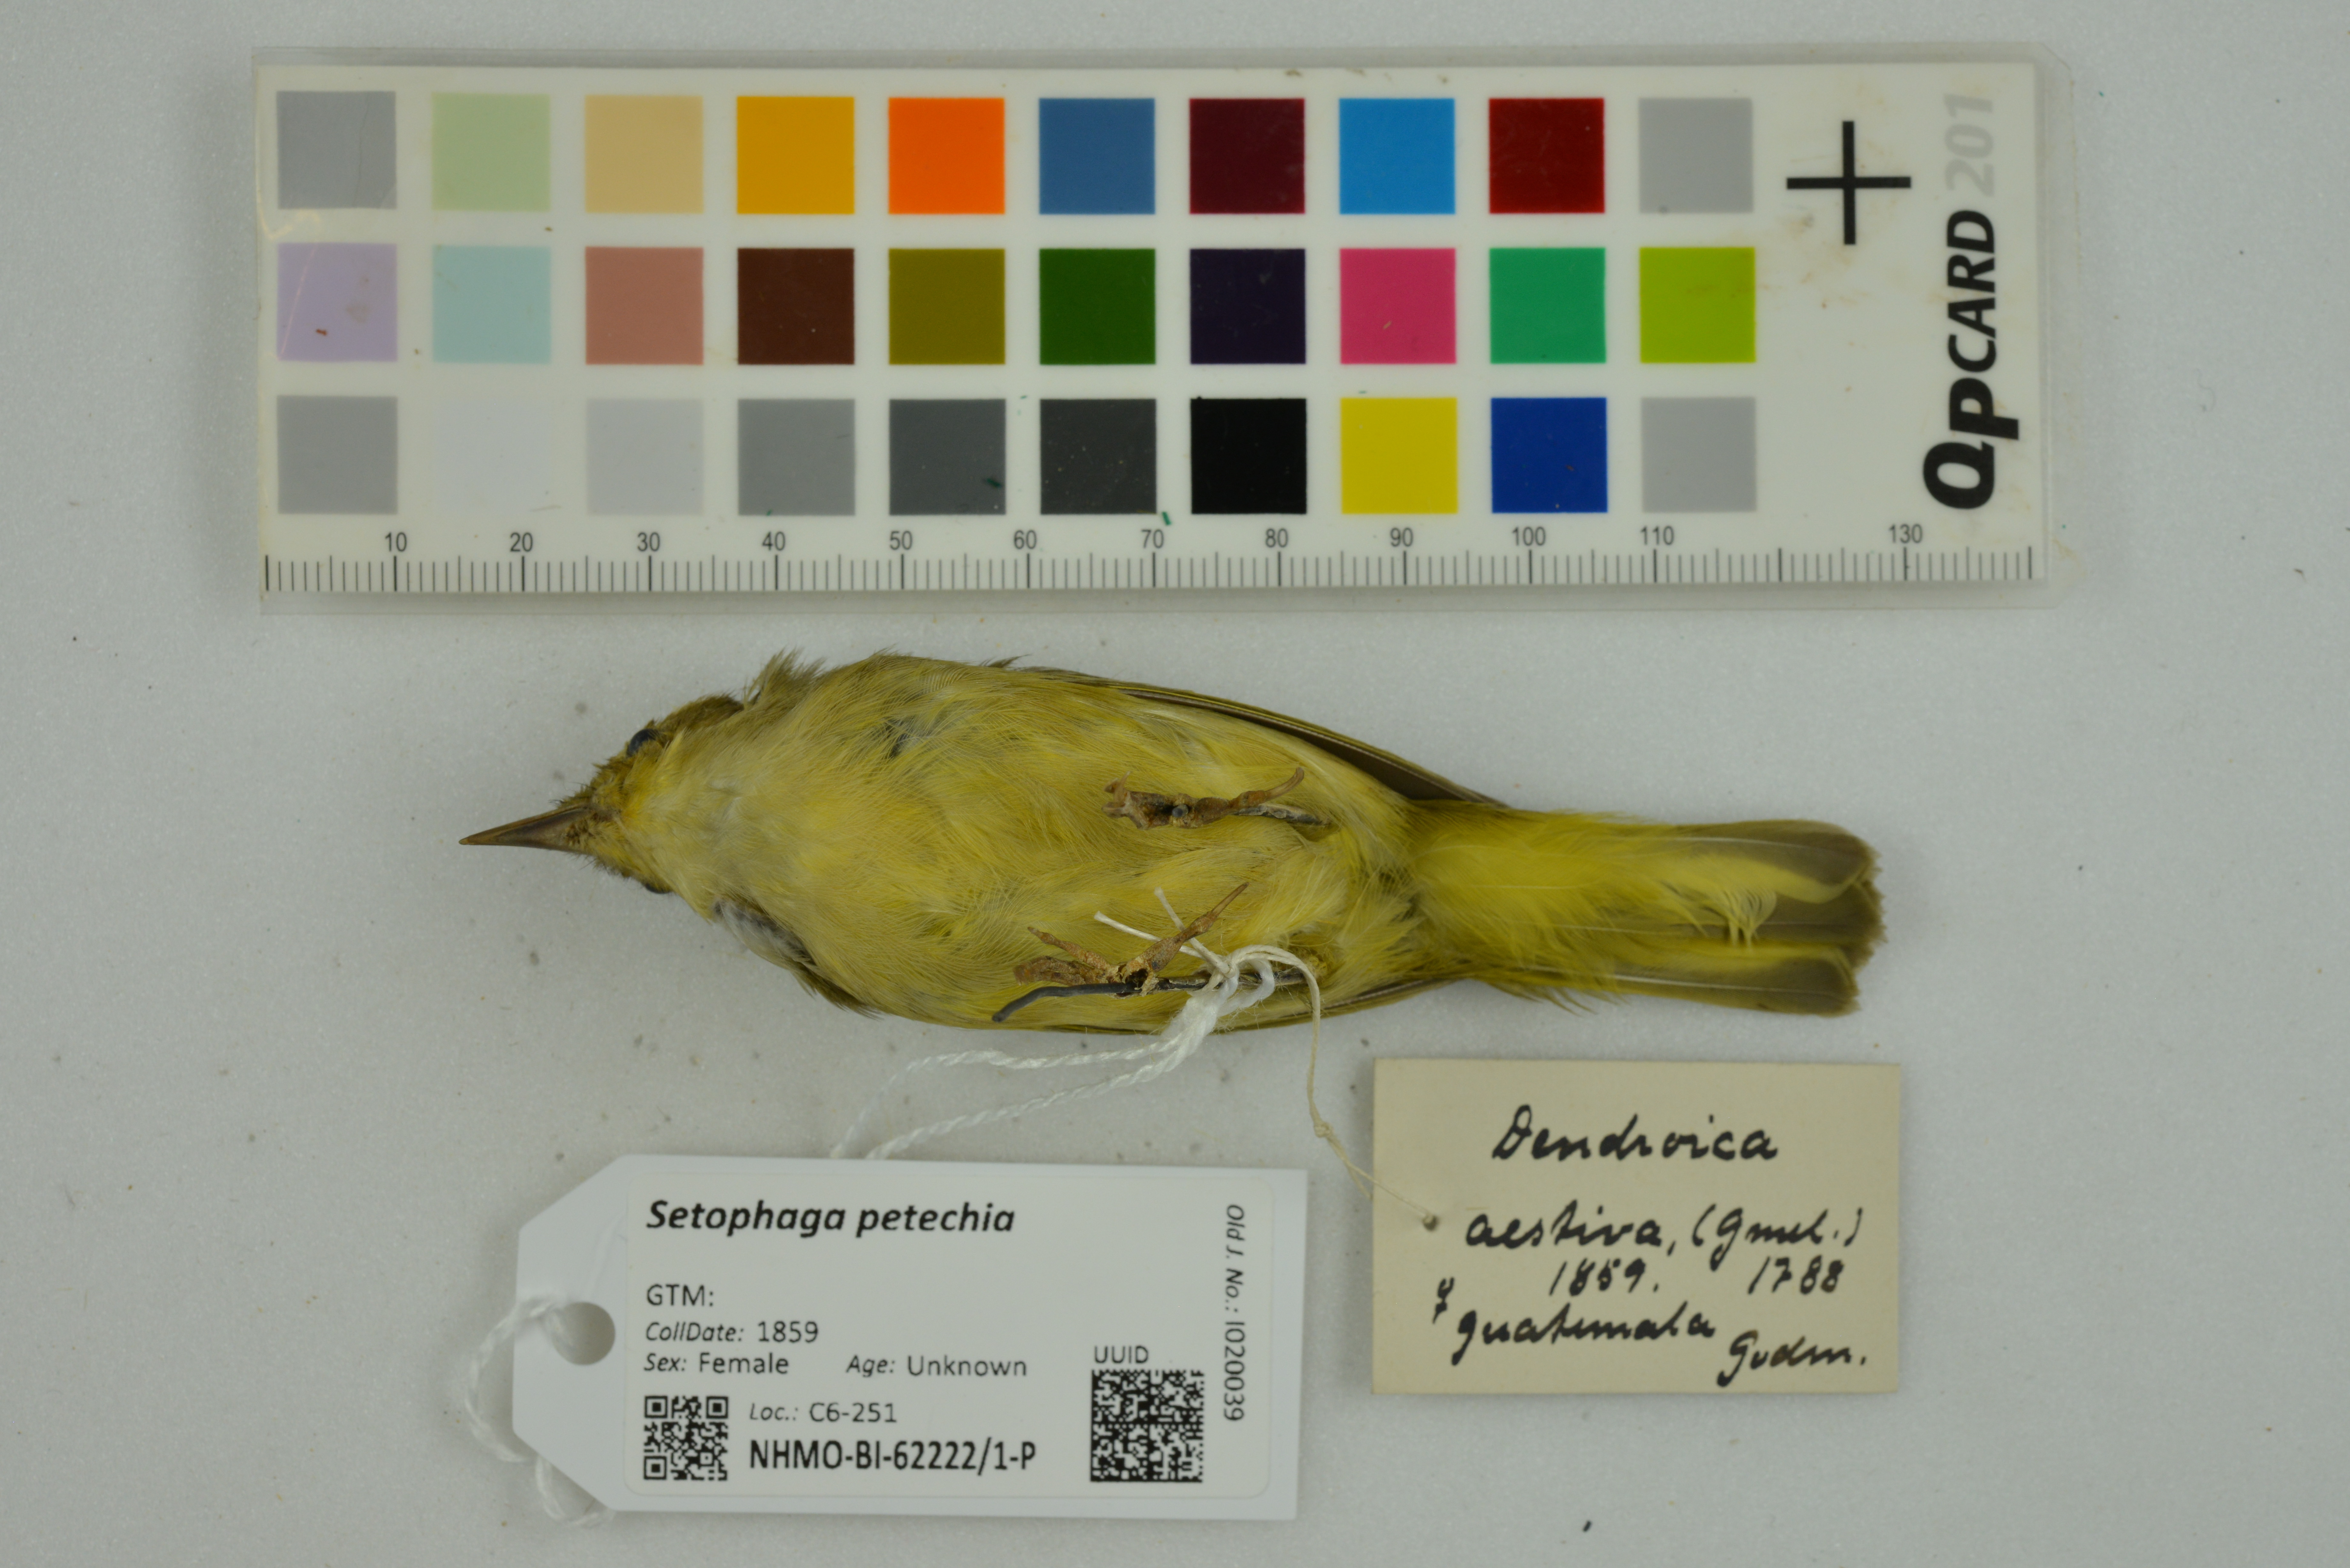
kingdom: Animalia
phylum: Chordata
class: Aves
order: Passeriformes
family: Parulidae
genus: Setophaga
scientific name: Setophaga petechia
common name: Yellow warbler
